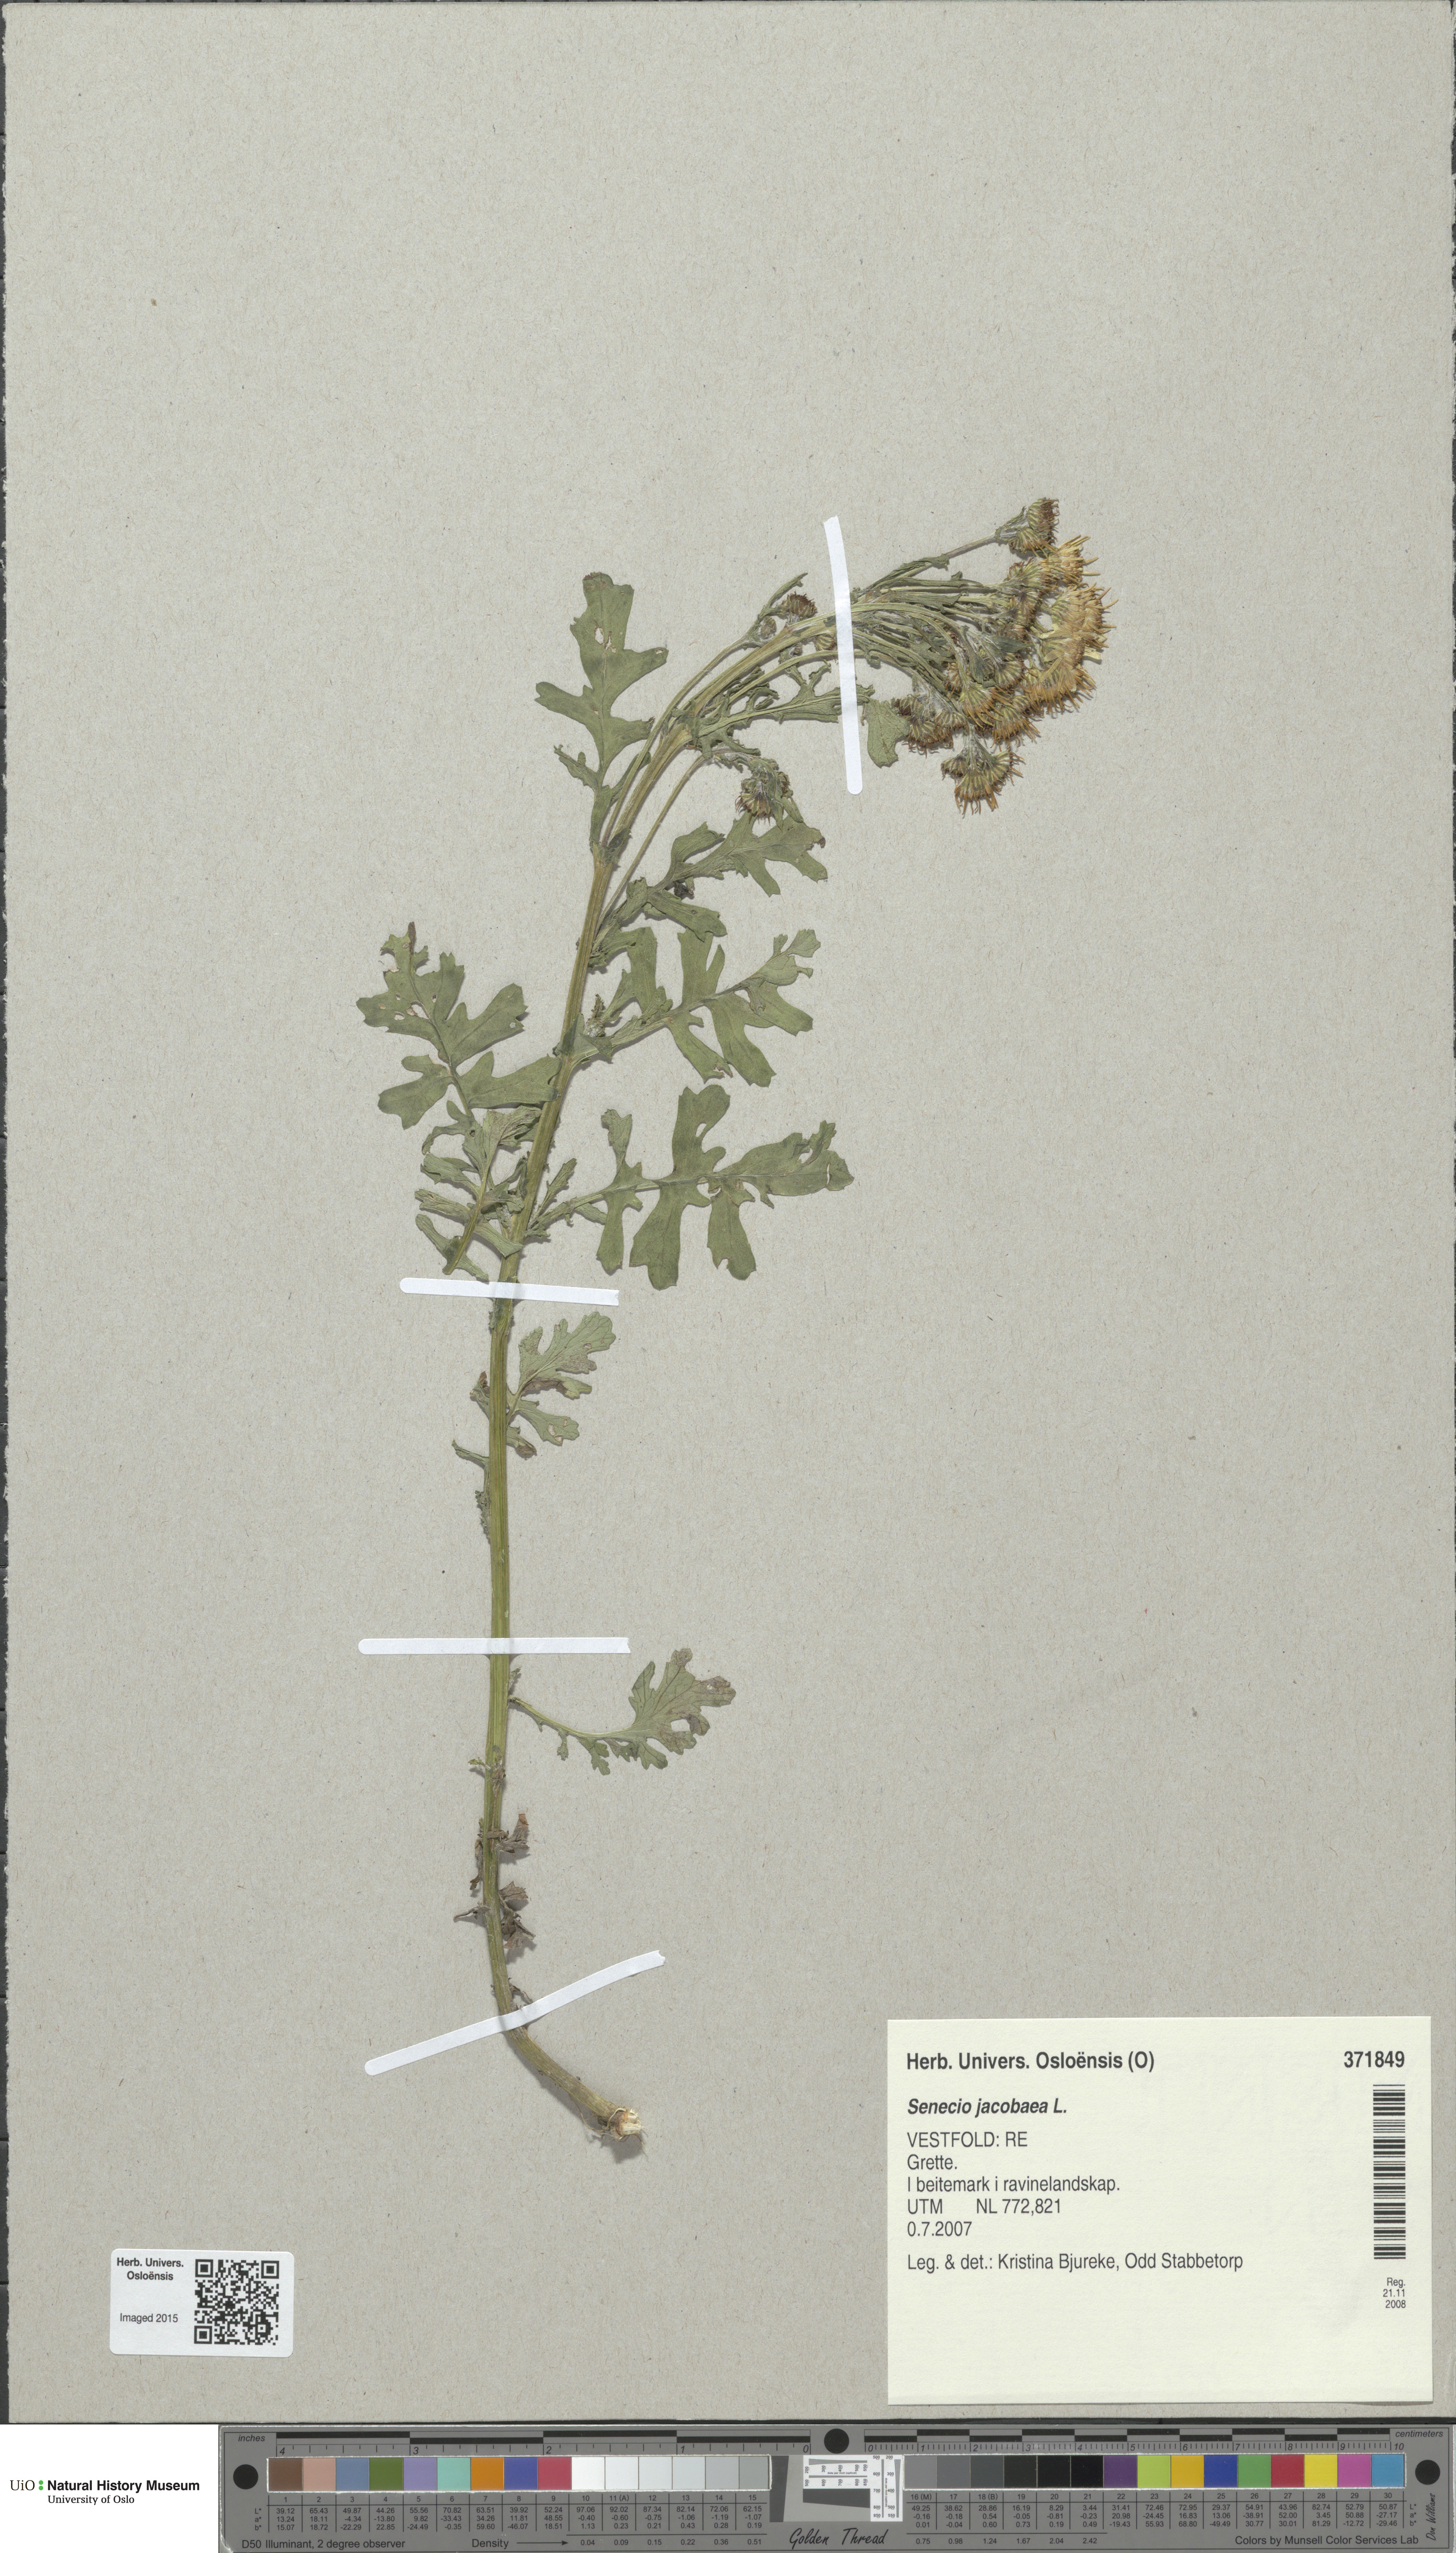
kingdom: Plantae
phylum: Tracheophyta
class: Magnoliopsida
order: Asterales
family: Asteraceae
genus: Jacobaea
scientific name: Jacobaea vulgaris
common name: Stinking willie
